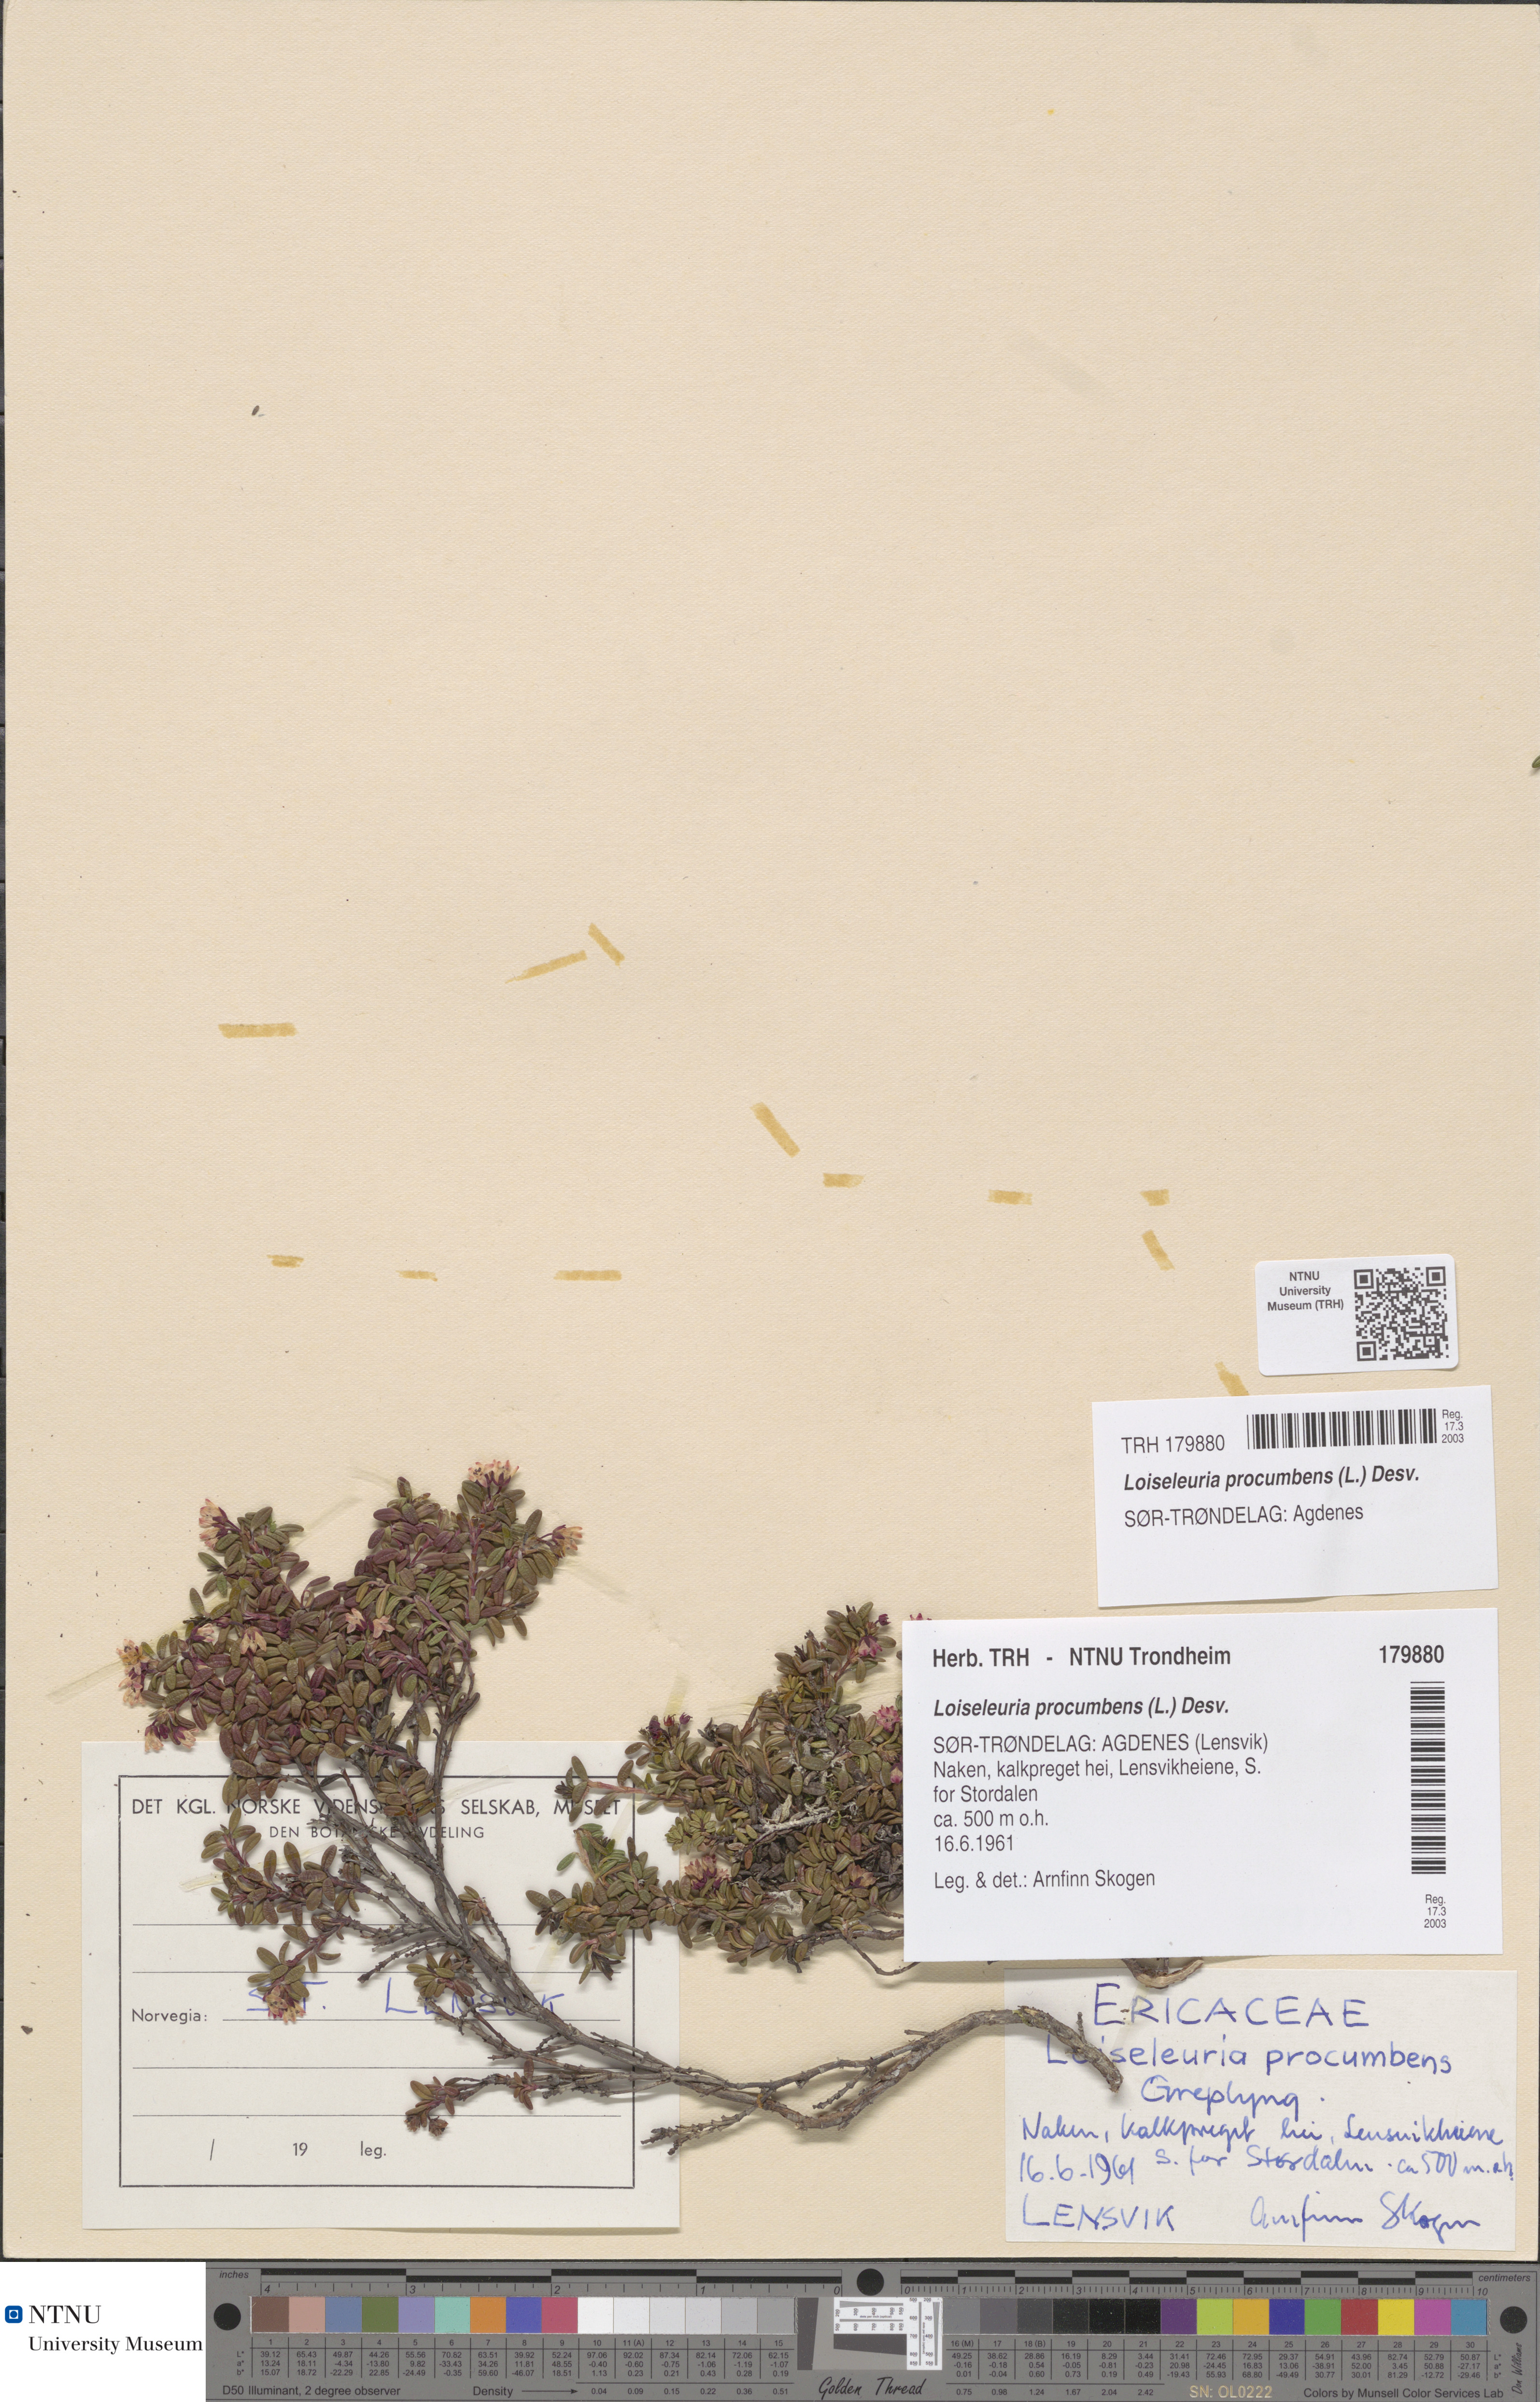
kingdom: Plantae
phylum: Tracheophyta
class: Magnoliopsida
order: Ericales
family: Ericaceae
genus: Kalmia
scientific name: Kalmia procumbens
